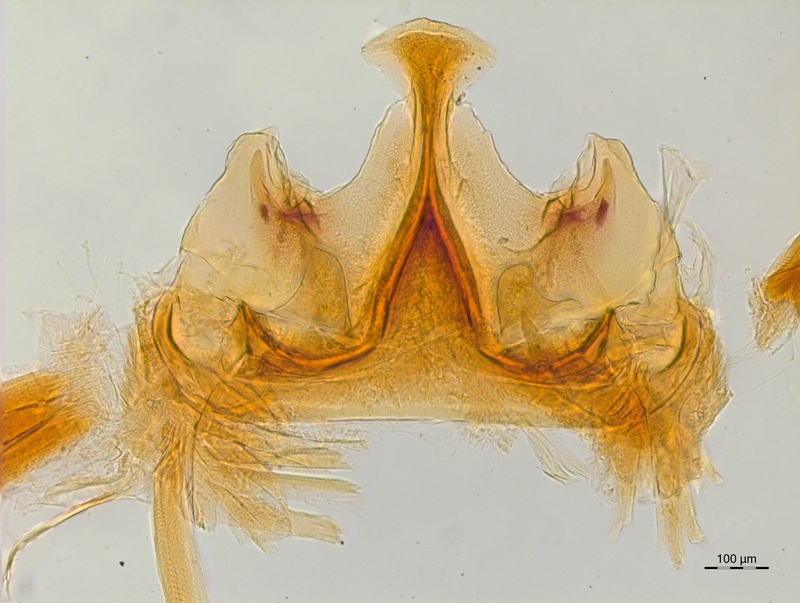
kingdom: Animalia
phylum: Arthropoda
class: Diplopoda
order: Chordeumatida
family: Craspedosomatidae
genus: Craspedosoma
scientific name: Craspedosoma slavum
